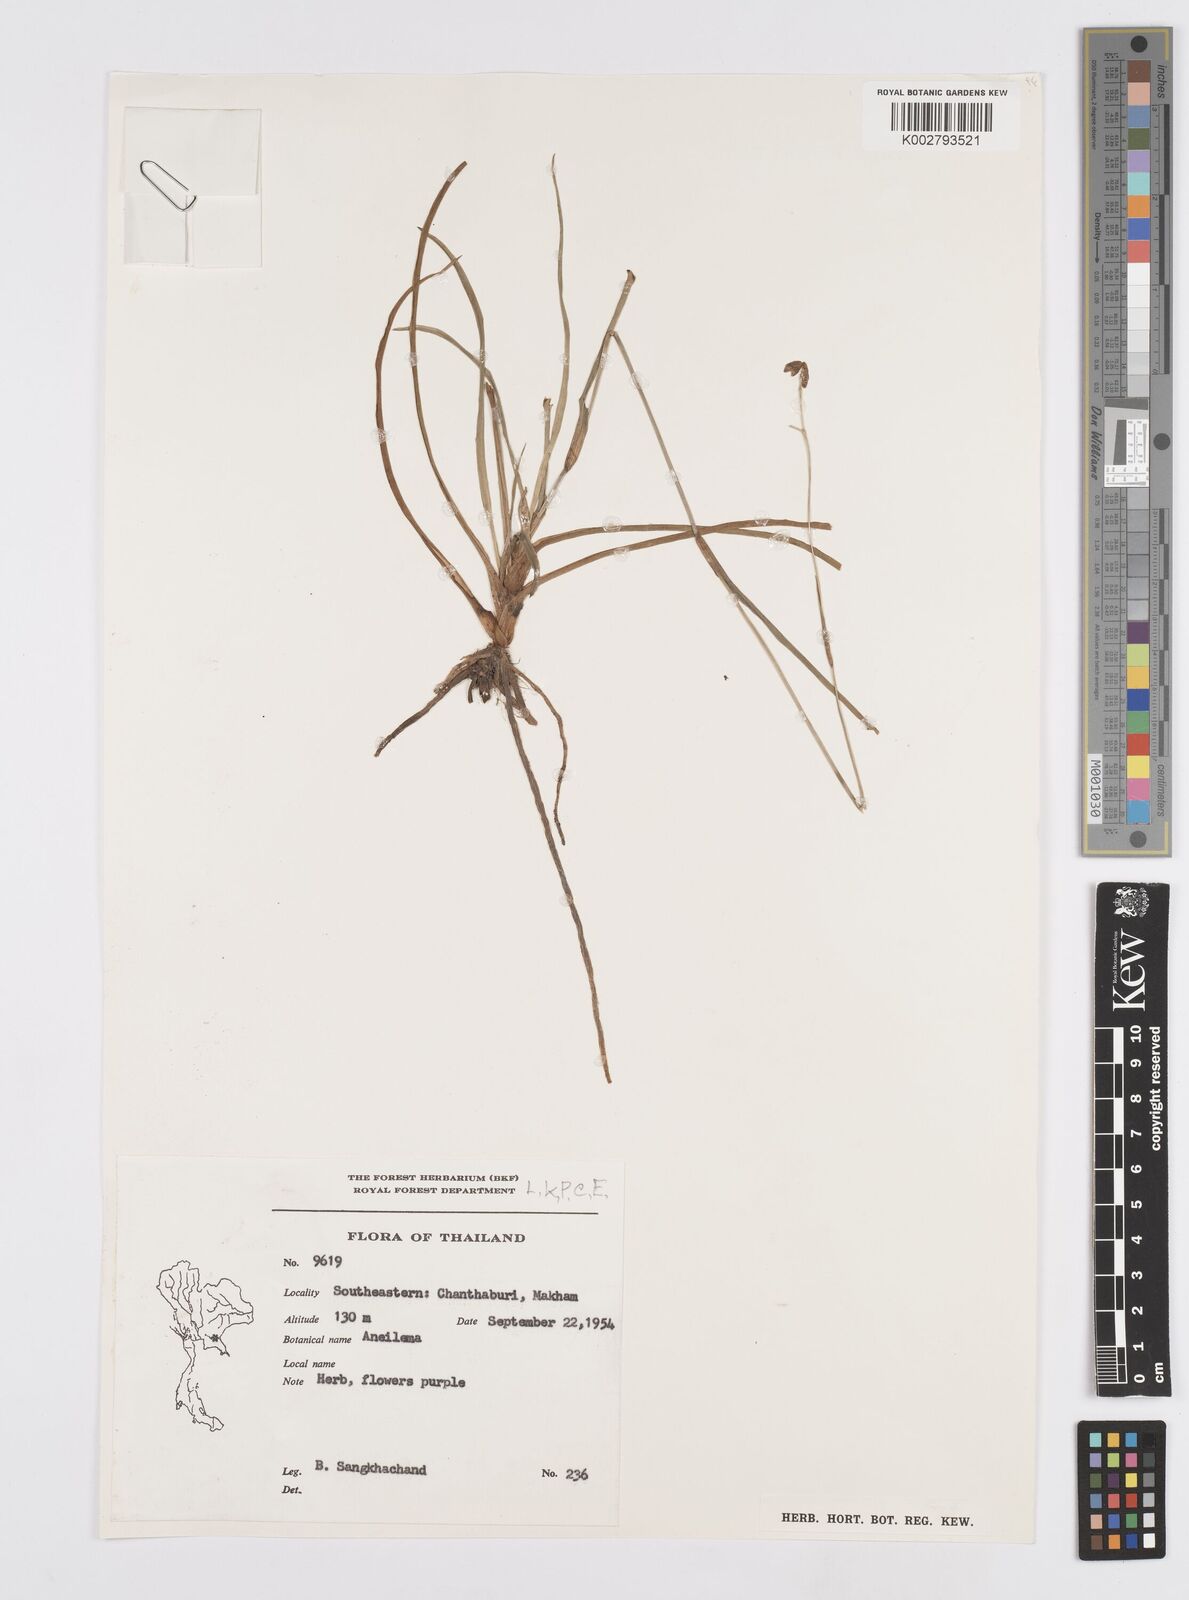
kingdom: Plantae
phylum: Tracheophyta
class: Liliopsida
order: Commelinales
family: Commelinaceae
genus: Murdannia
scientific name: Murdannia
